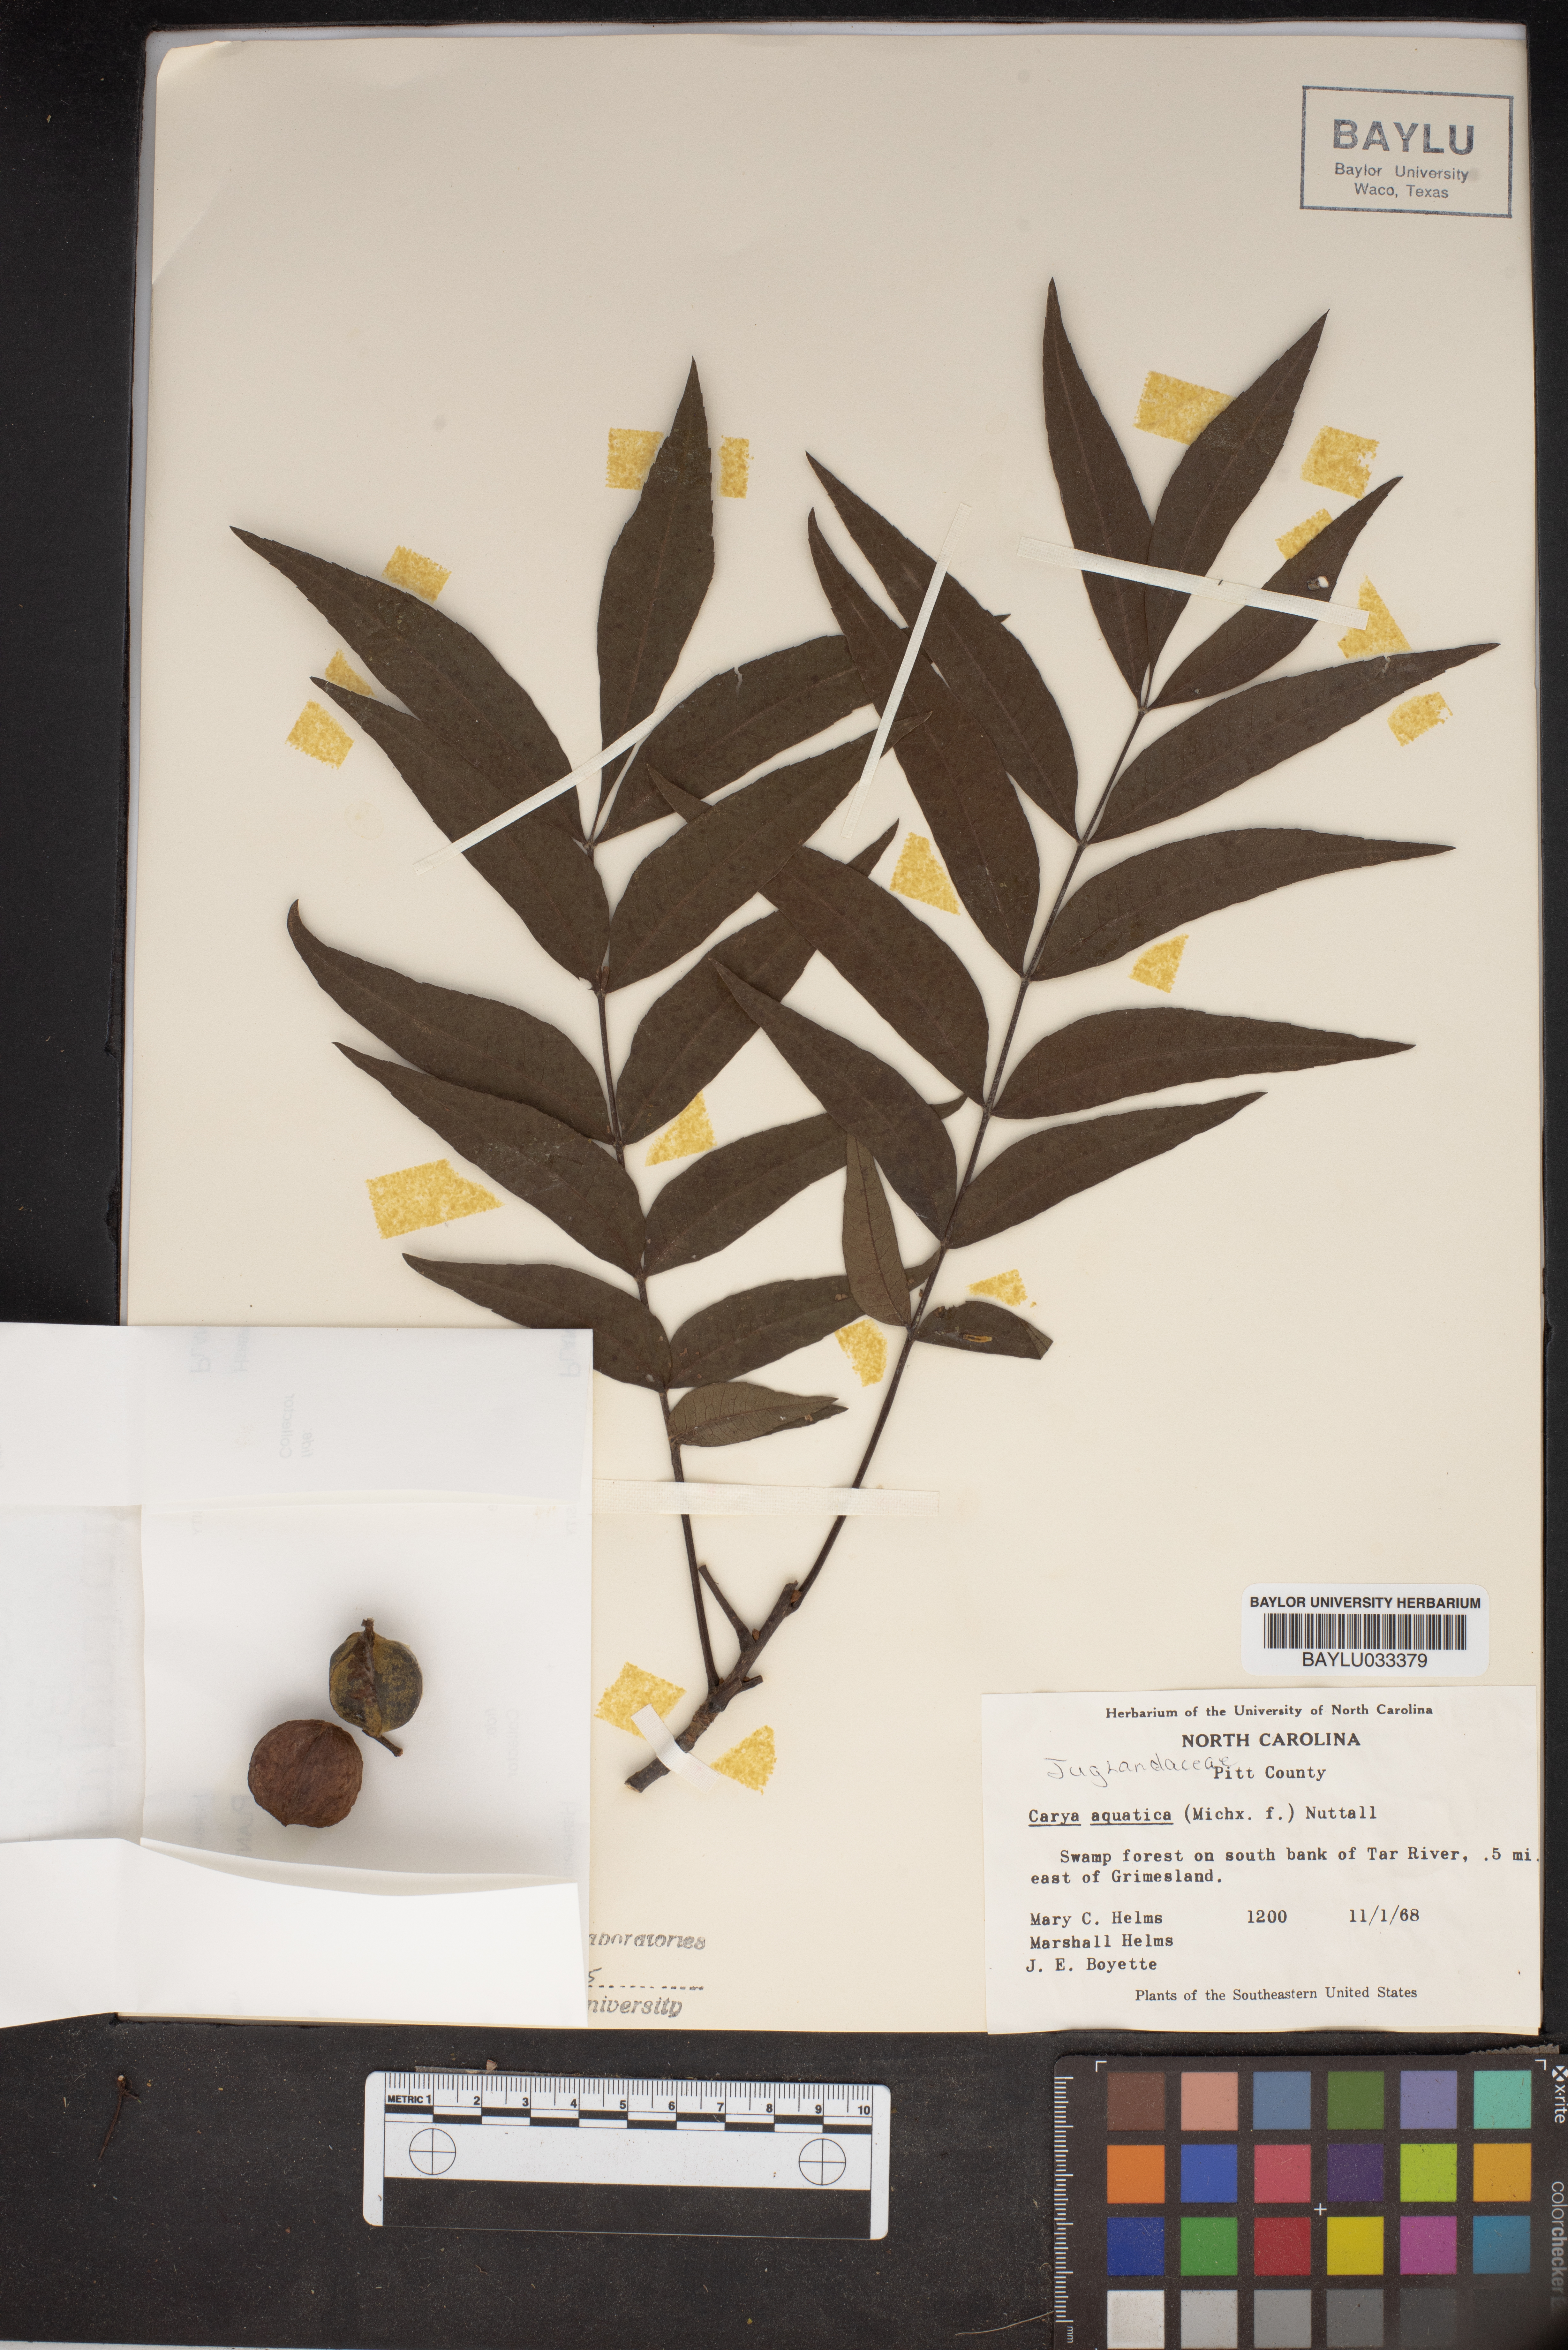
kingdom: Plantae
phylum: Tracheophyta
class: Magnoliopsida
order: Fagales
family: Juglandaceae
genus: Carya
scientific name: Carya aquatica
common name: Water hickory
